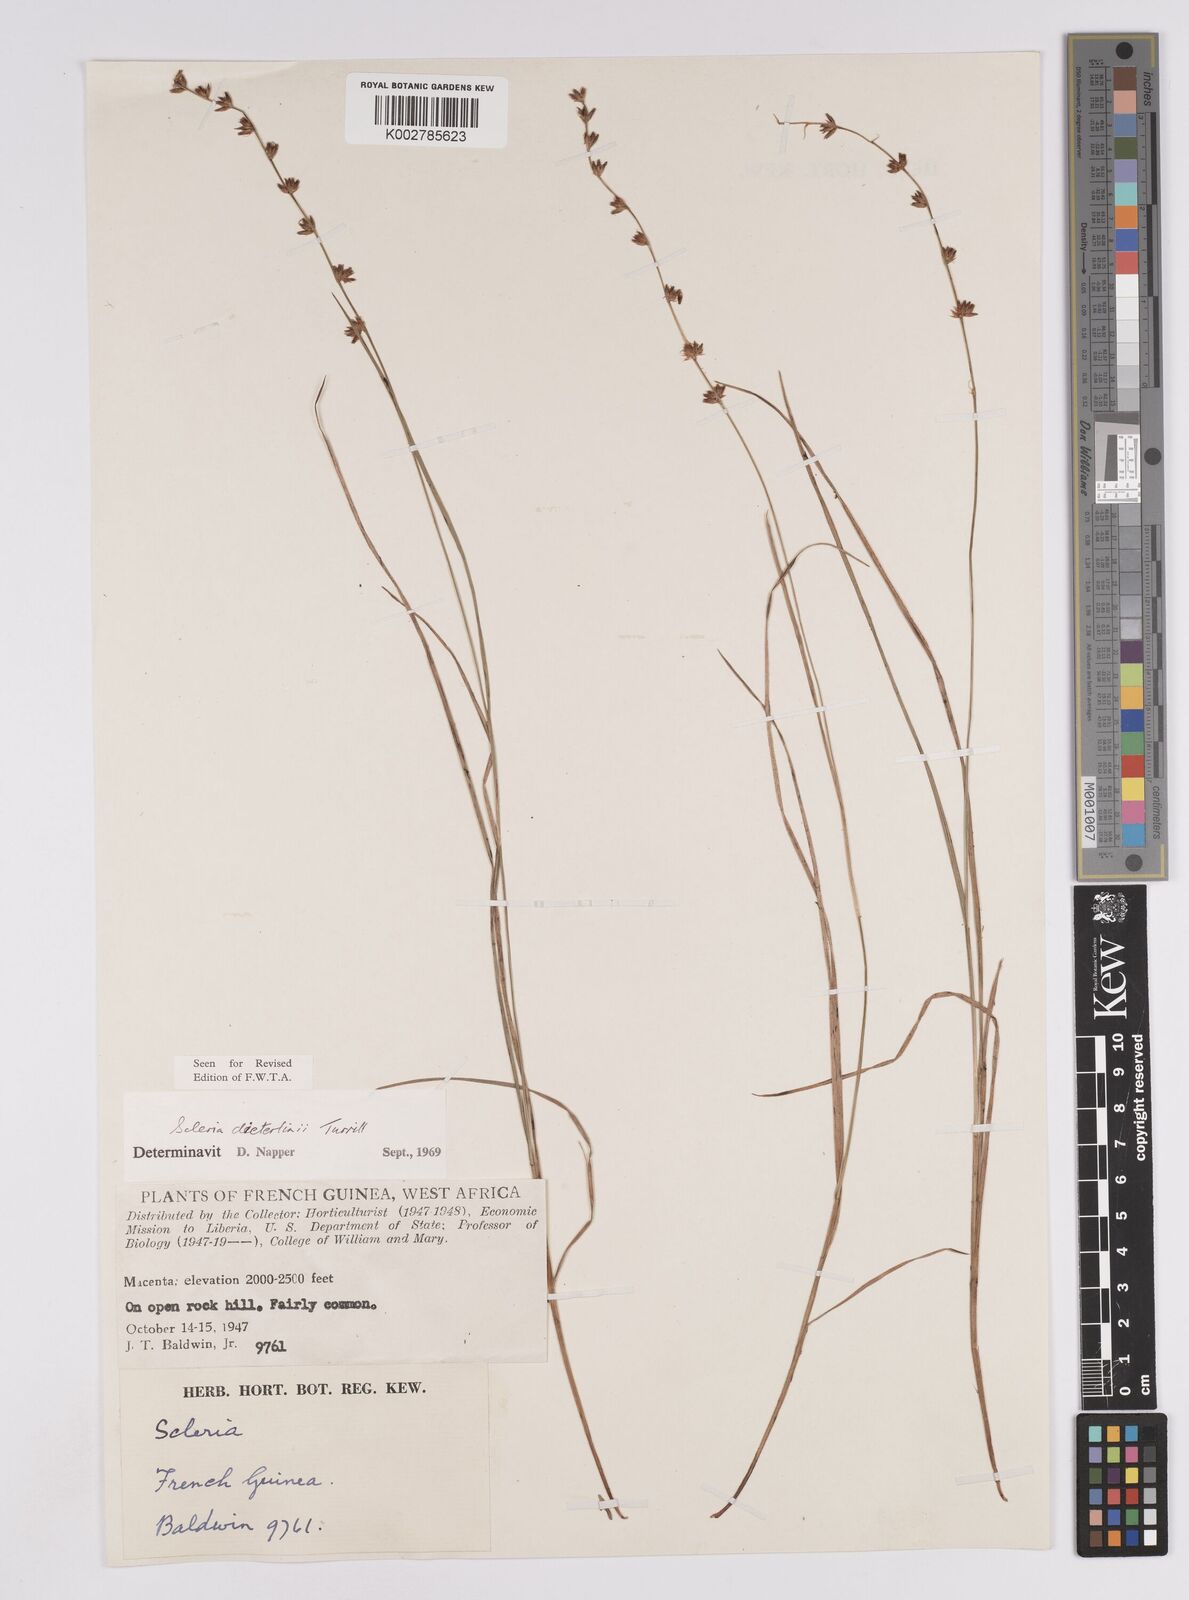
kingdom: Plantae
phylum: Tracheophyta
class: Liliopsida
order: Poales
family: Cyperaceae
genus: Scleria
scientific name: Scleria flexuosa
